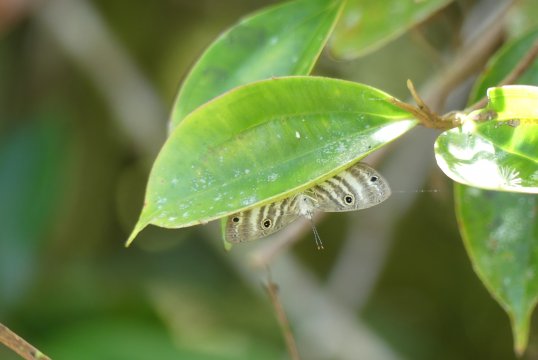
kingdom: Animalia
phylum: Arthropoda
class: Insecta
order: Lepidoptera
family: Riodinidae
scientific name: Riodinidae
